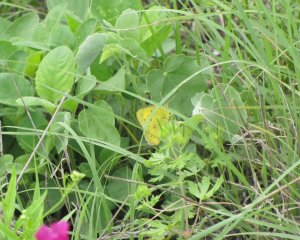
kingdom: Animalia
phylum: Arthropoda
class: Insecta
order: Lepidoptera
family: Pieridae
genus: Colias
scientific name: Colias eurytheme
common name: Orange Sulphur
